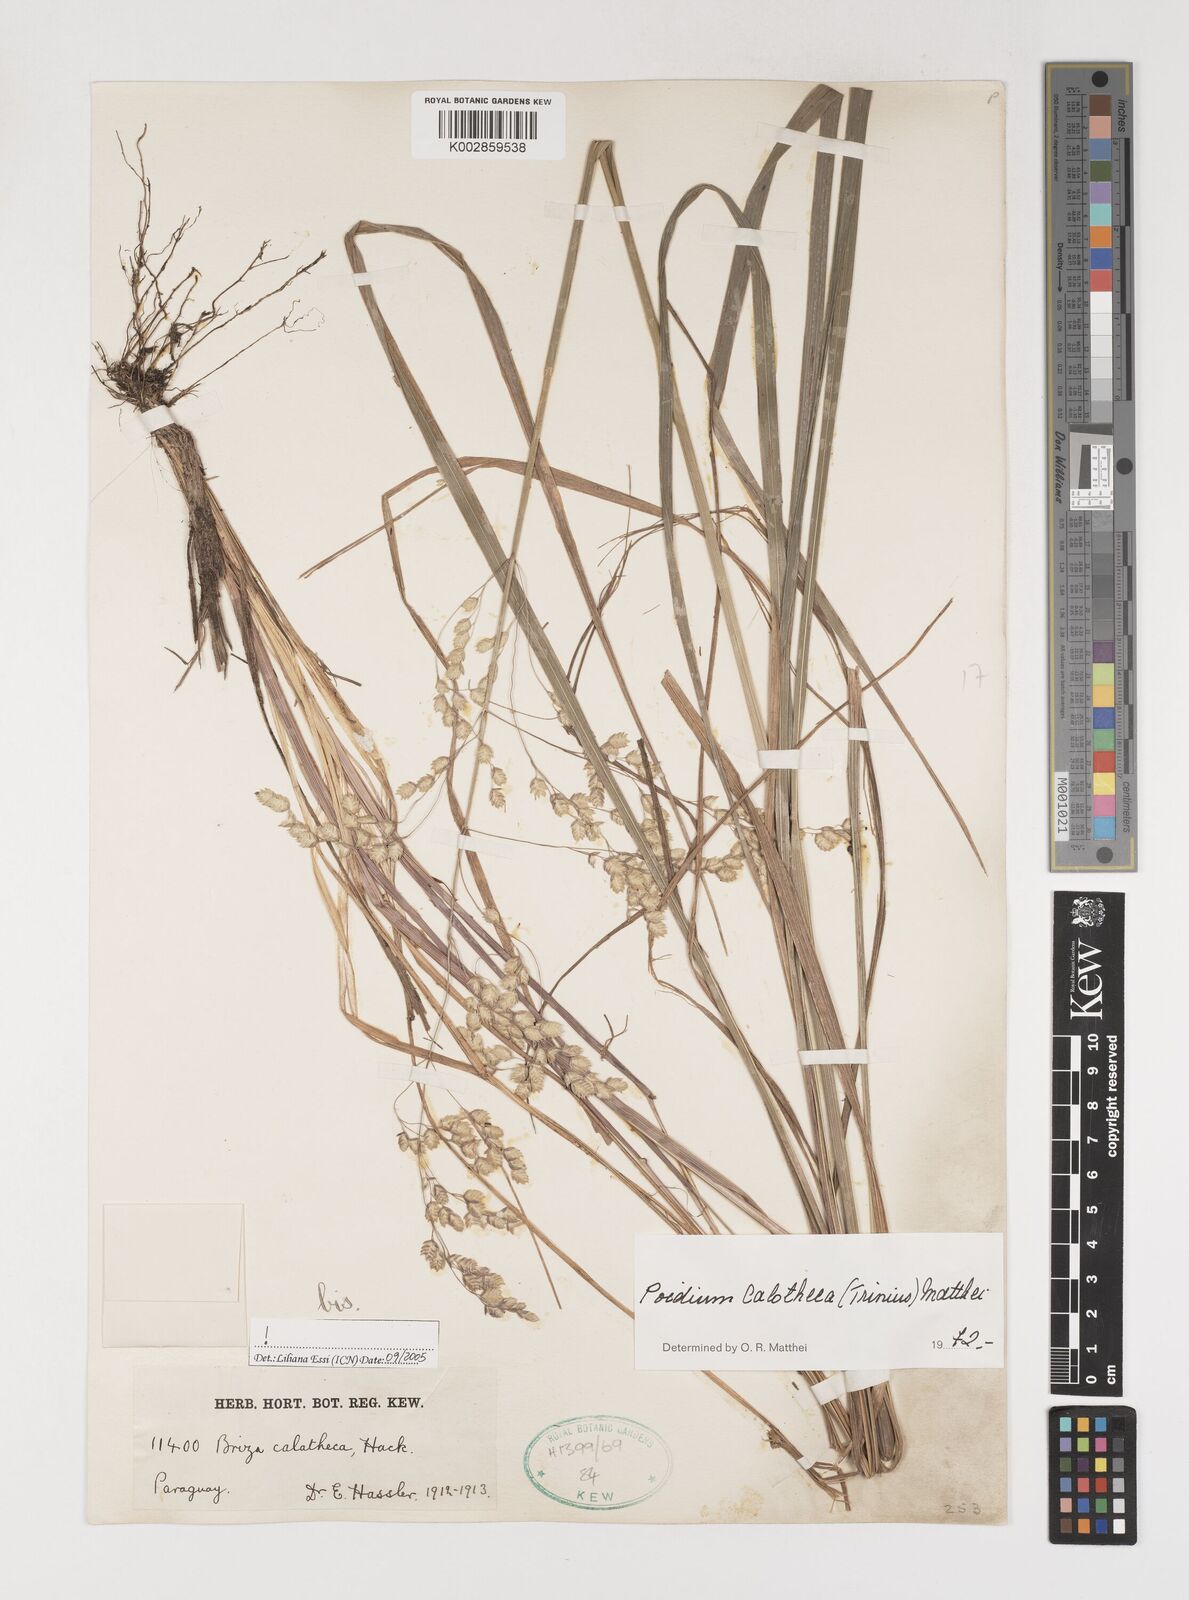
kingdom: Plantae
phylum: Tracheophyta
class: Liliopsida
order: Poales
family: Poaceae
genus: Poidium
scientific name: Poidium calotheca
